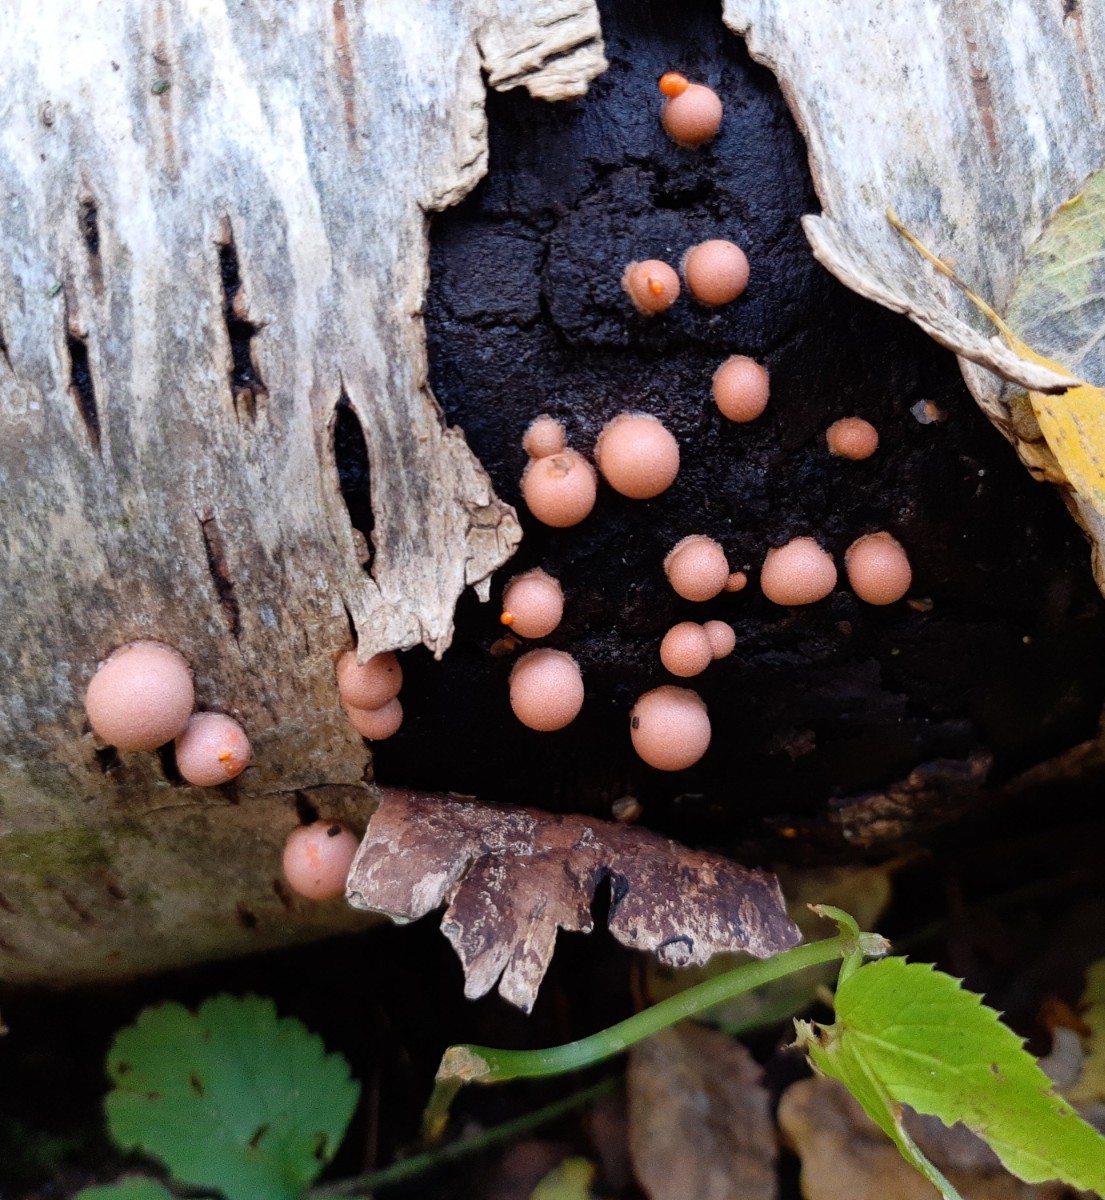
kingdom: Protozoa
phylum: Mycetozoa
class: Myxomycetes
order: Cribrariales
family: Tubiferaceae
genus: Lycogala
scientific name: Lycogala epidendrum
